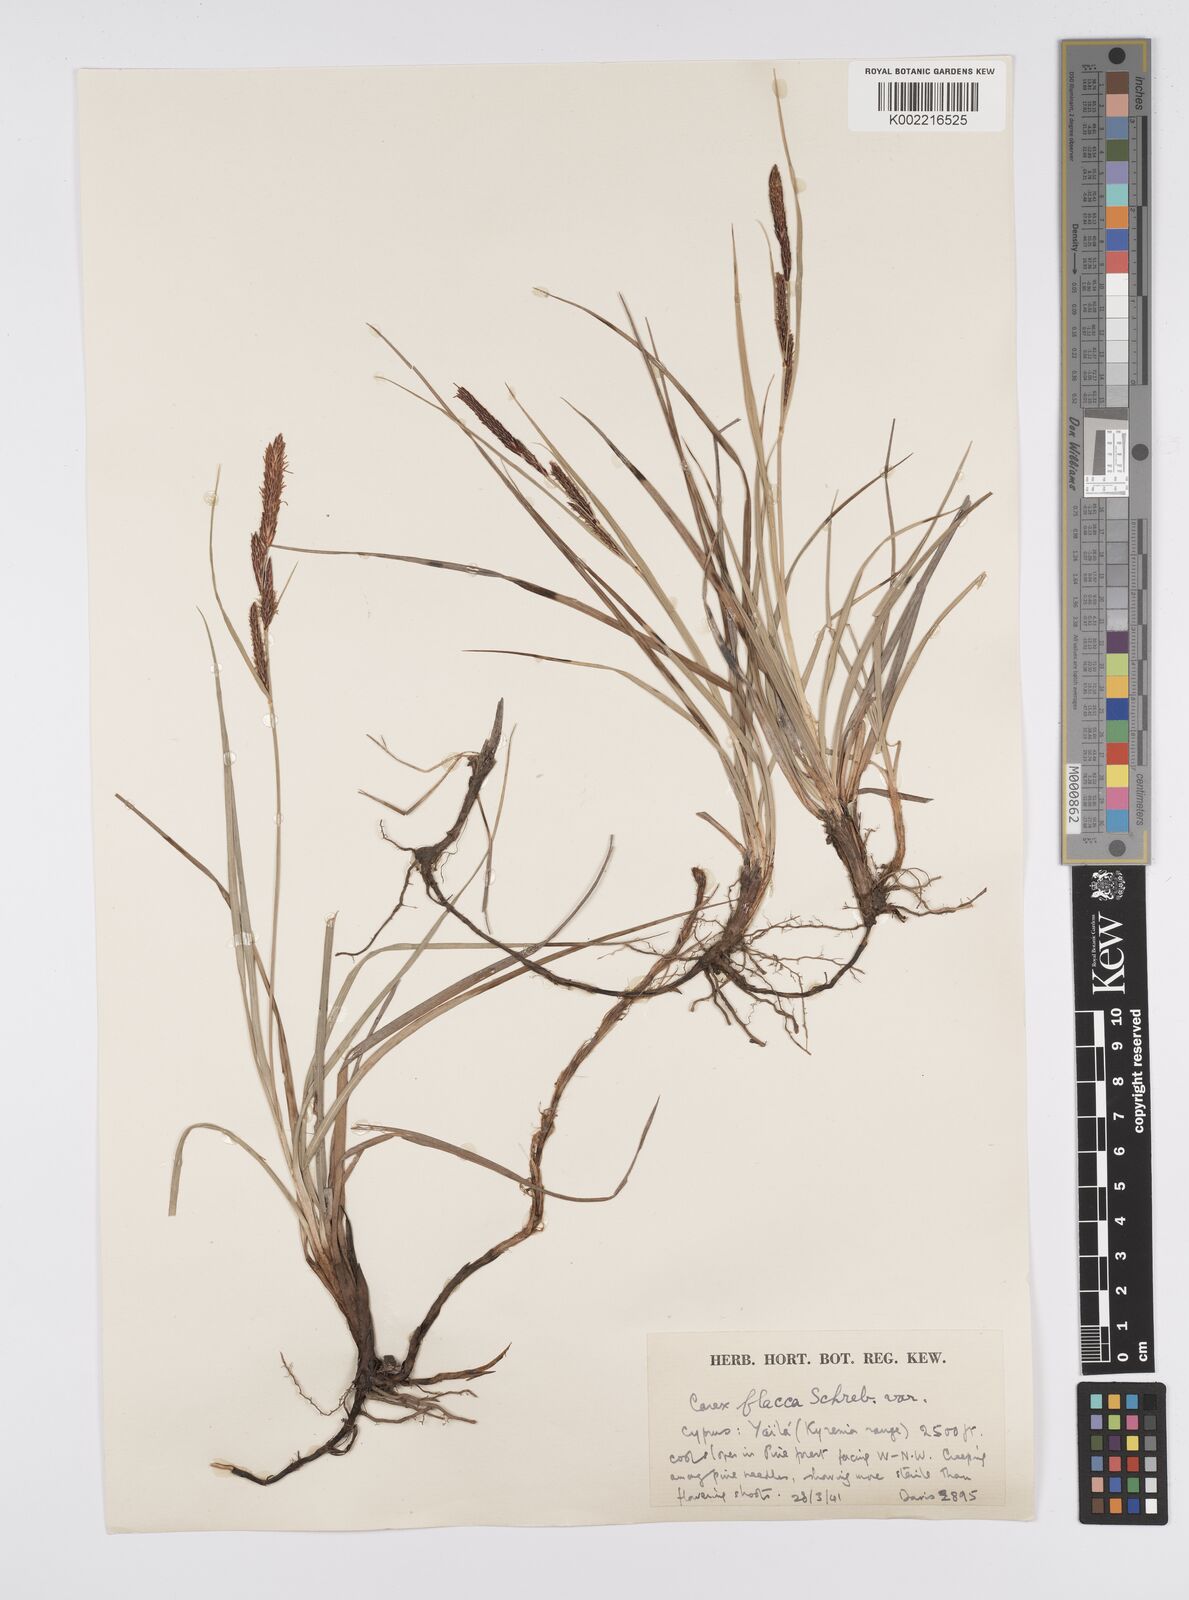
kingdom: Plantae
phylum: Tracheophyta
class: Liliopsida
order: Poales
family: Cyperaceae
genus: Carex
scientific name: Carex flacca
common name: Glaucous sedge
